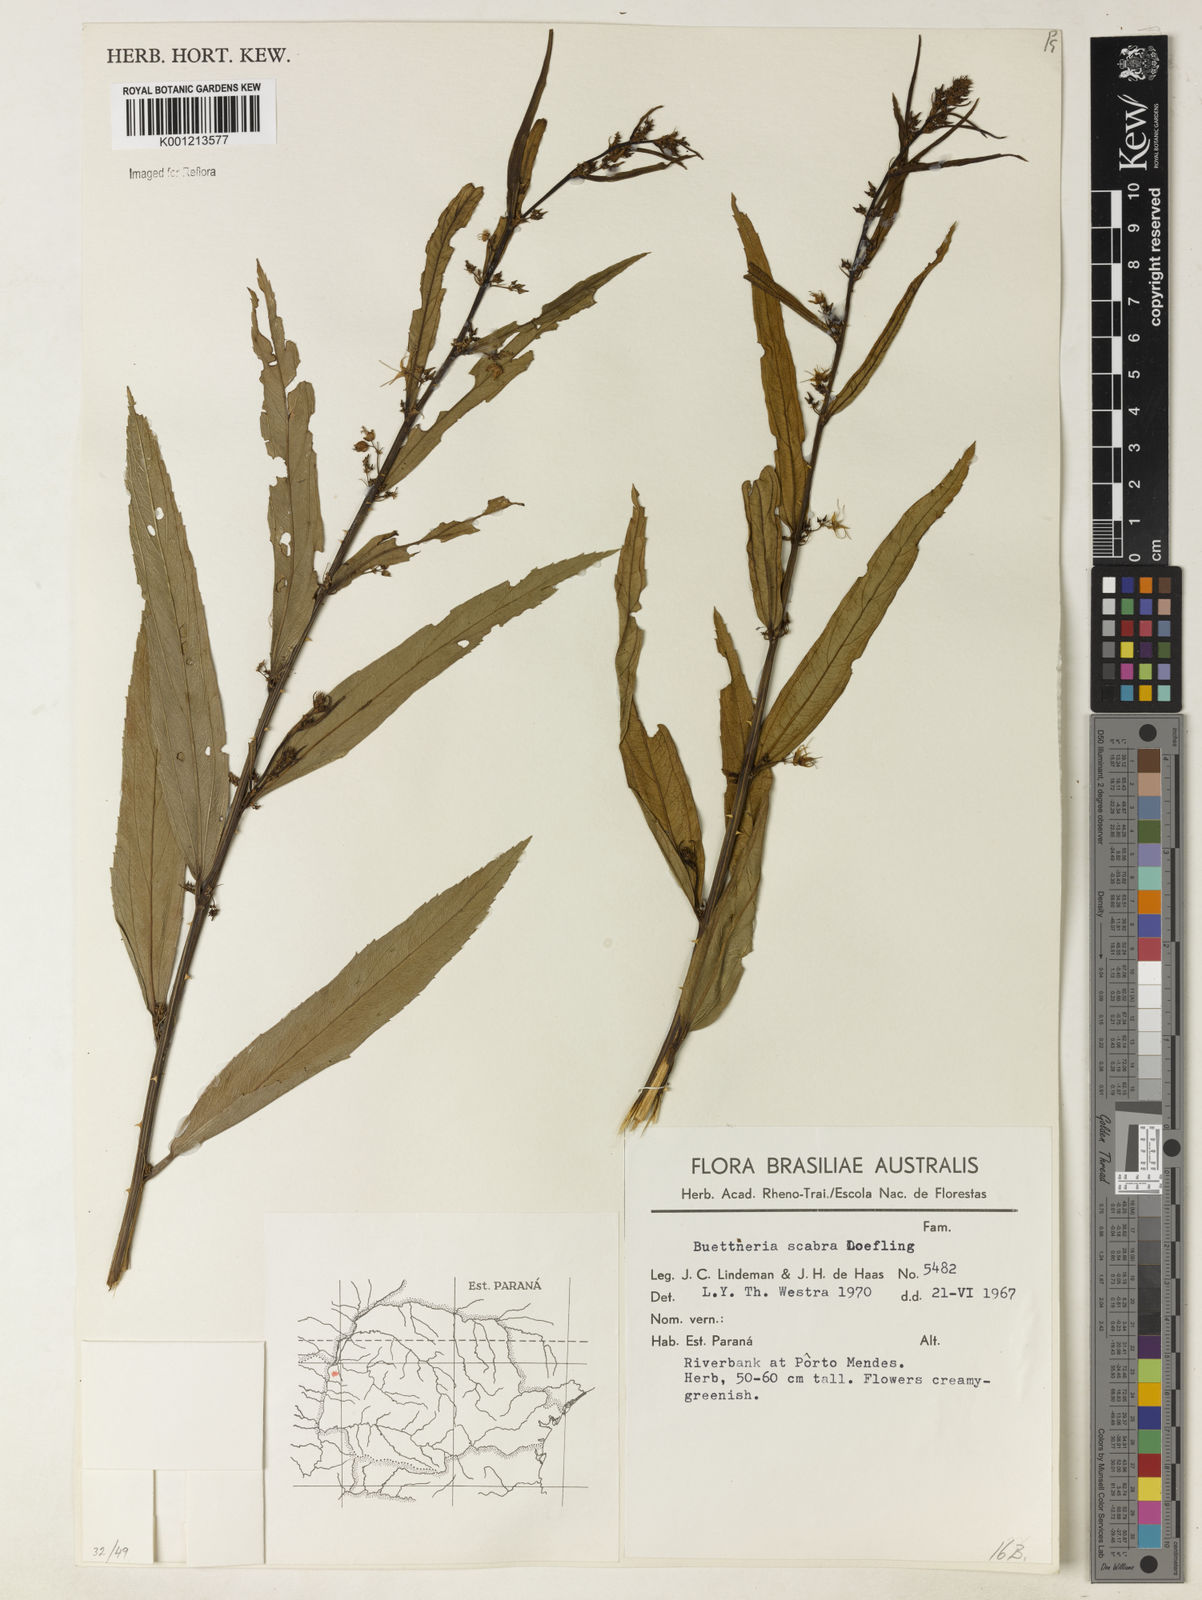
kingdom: Plantae
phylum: Tracheophyta
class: Magnoliopsida
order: Malvales
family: Malvaceae
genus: Byttneria
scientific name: Byttneria
